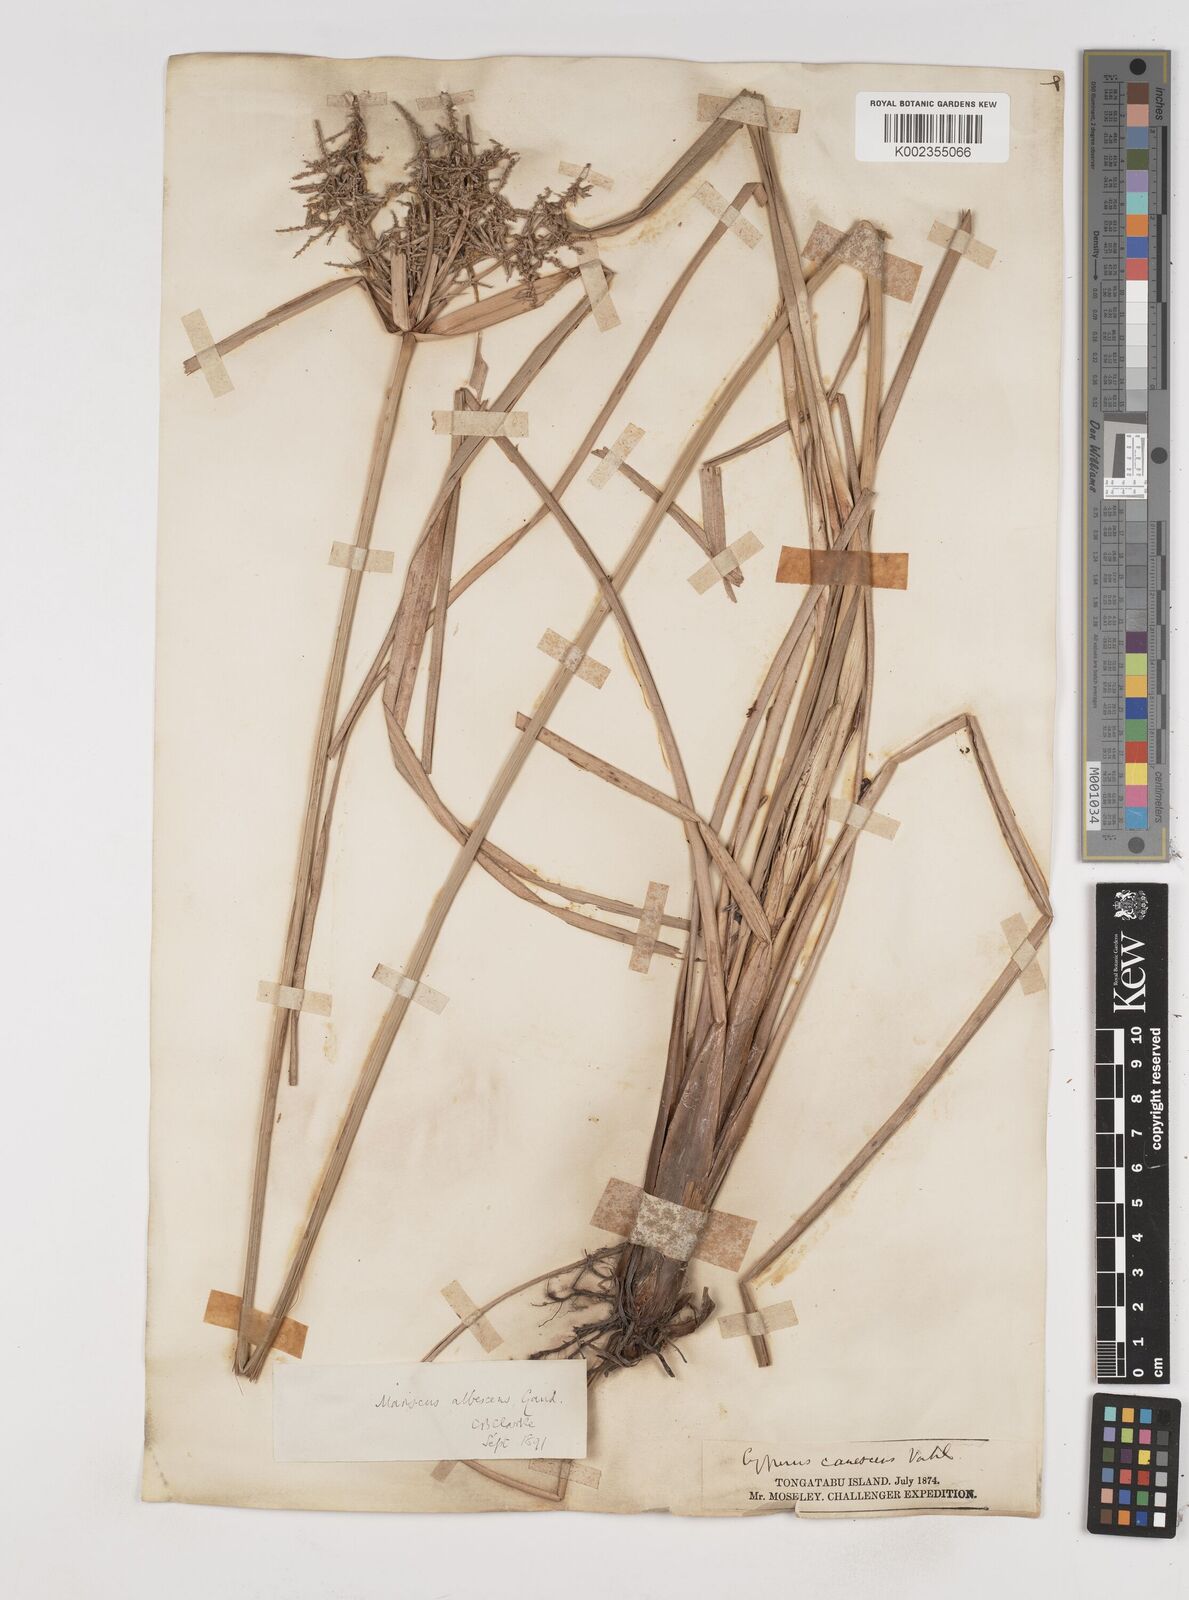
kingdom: Plantae
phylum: Tracheophyta
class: Liliopsida
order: Poales
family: Cyperaceae
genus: Cyperus
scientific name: Cyperus javanicus
